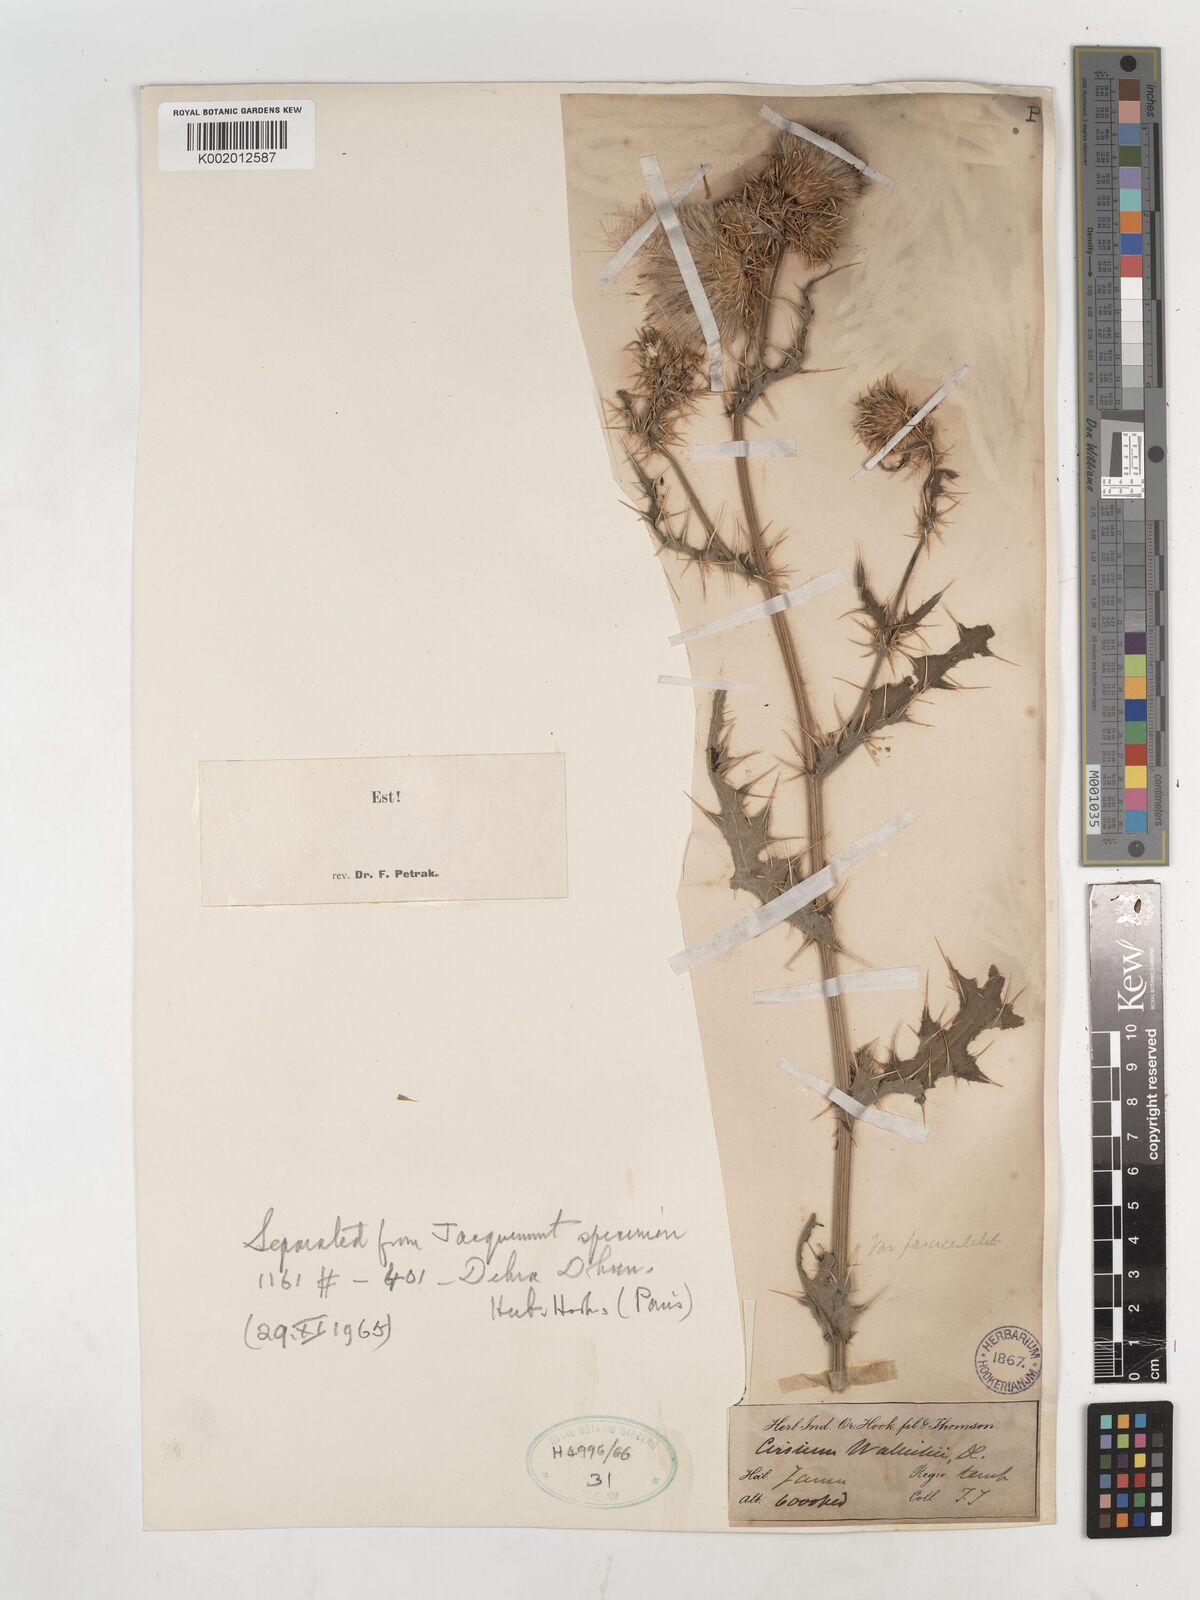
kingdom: Plantae
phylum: Tracheophyta
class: Magnoliopsida
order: Asterales
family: Asteraceae
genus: Cirsium
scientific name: Cirsium wallichii
